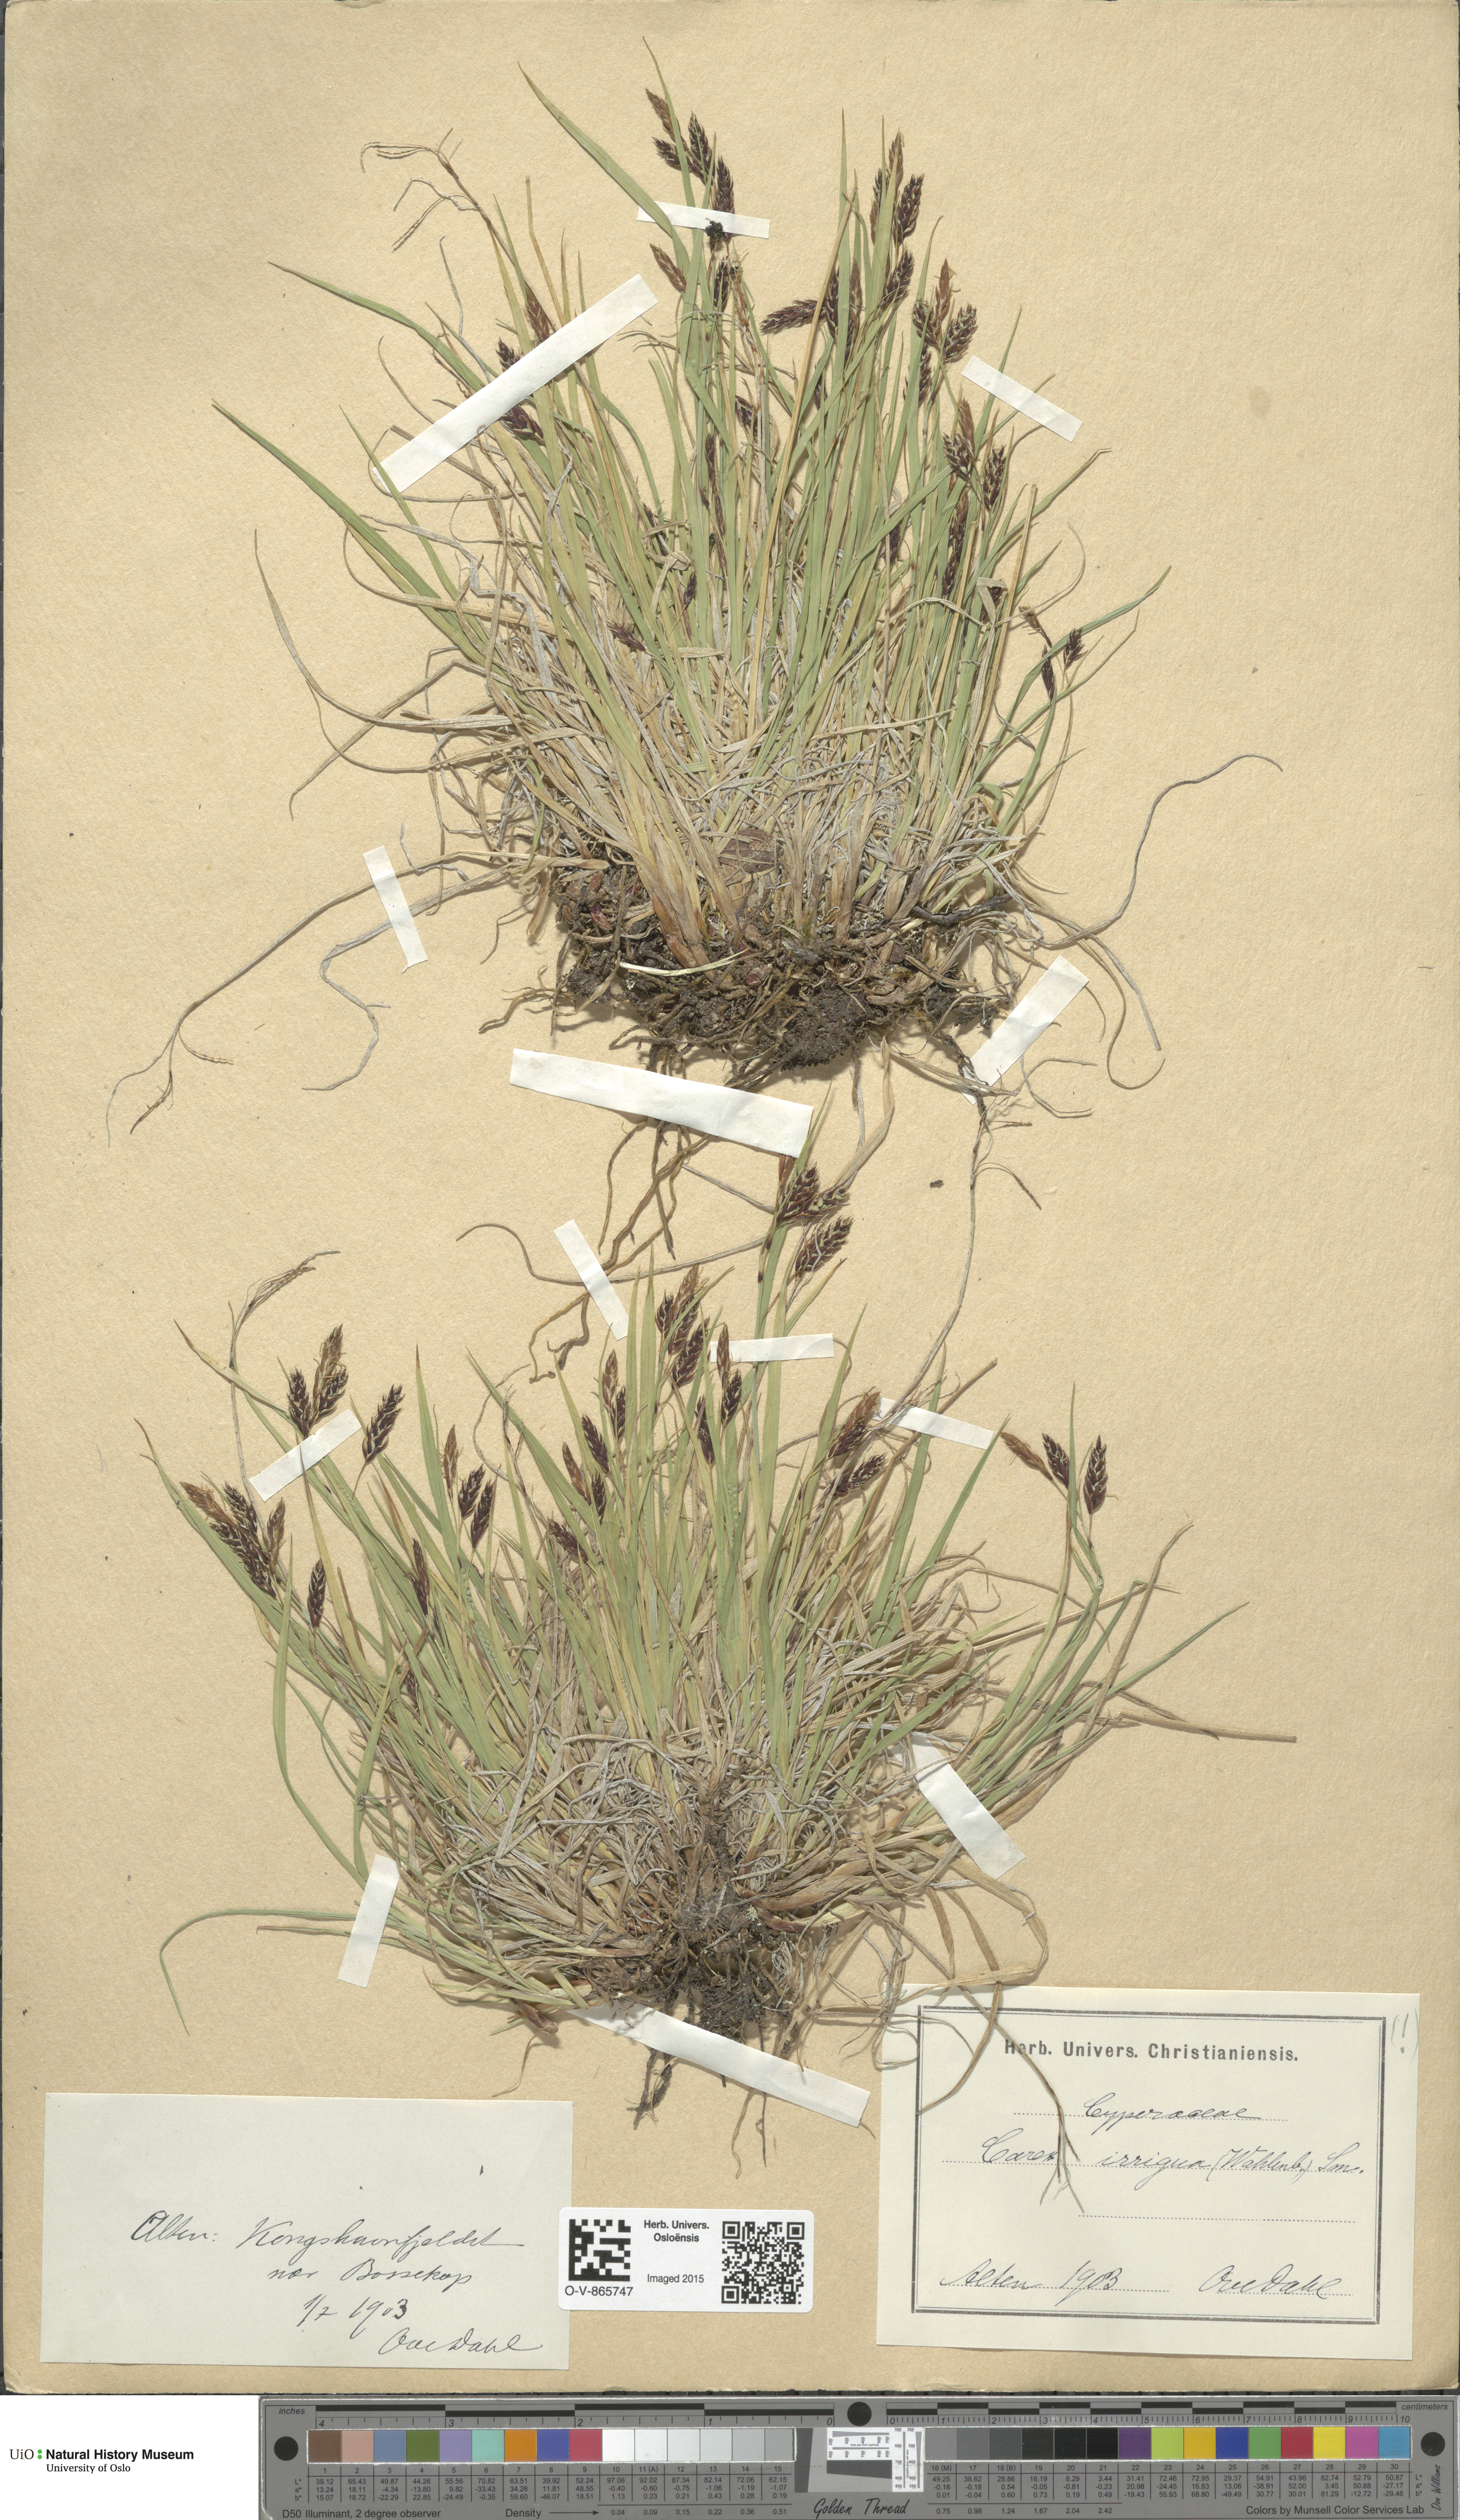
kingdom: Plantae
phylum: Tracheophyta
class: Liliopsida
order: Poales
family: Cyperaceae
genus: Carex
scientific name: Carex magellanica
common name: Bog sedge
